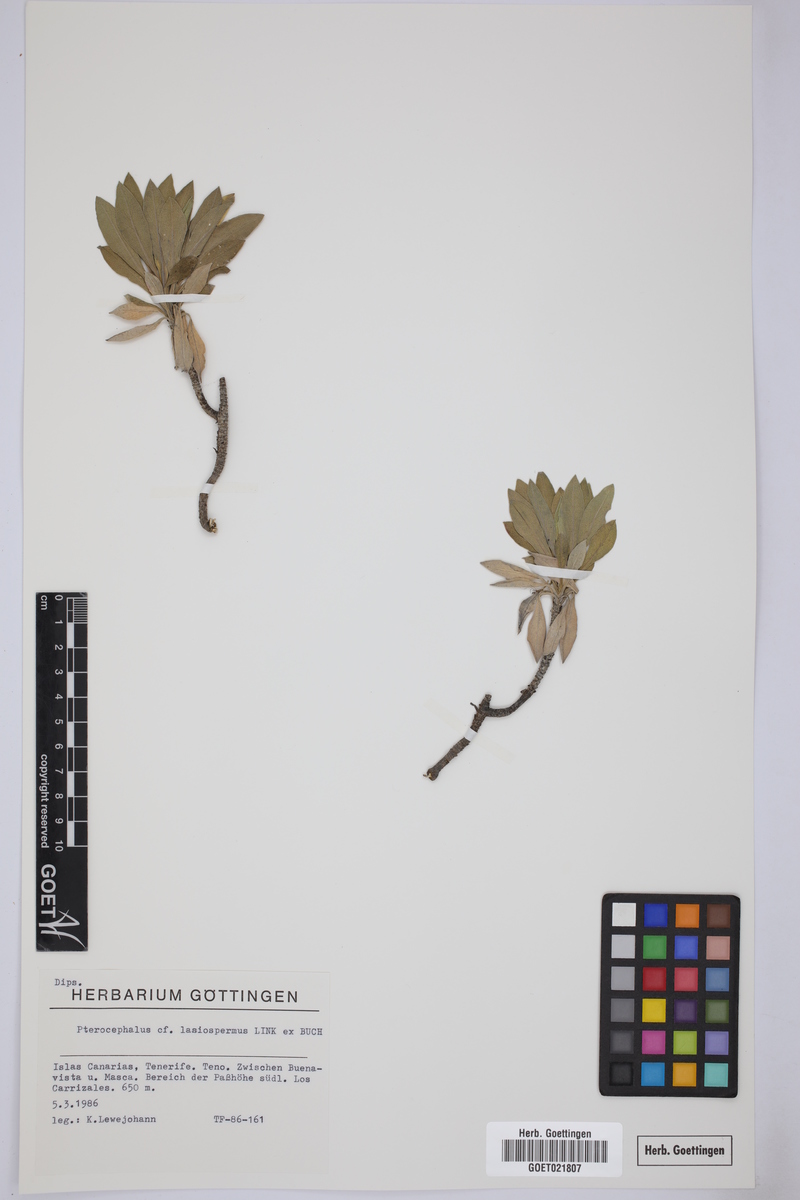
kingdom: Plantae
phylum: Tracheophyta
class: Magnoliopsida
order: Dipsacales
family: Caprifoliaceae
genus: Pterocephalus
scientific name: Pterocephalus lasiospermus
